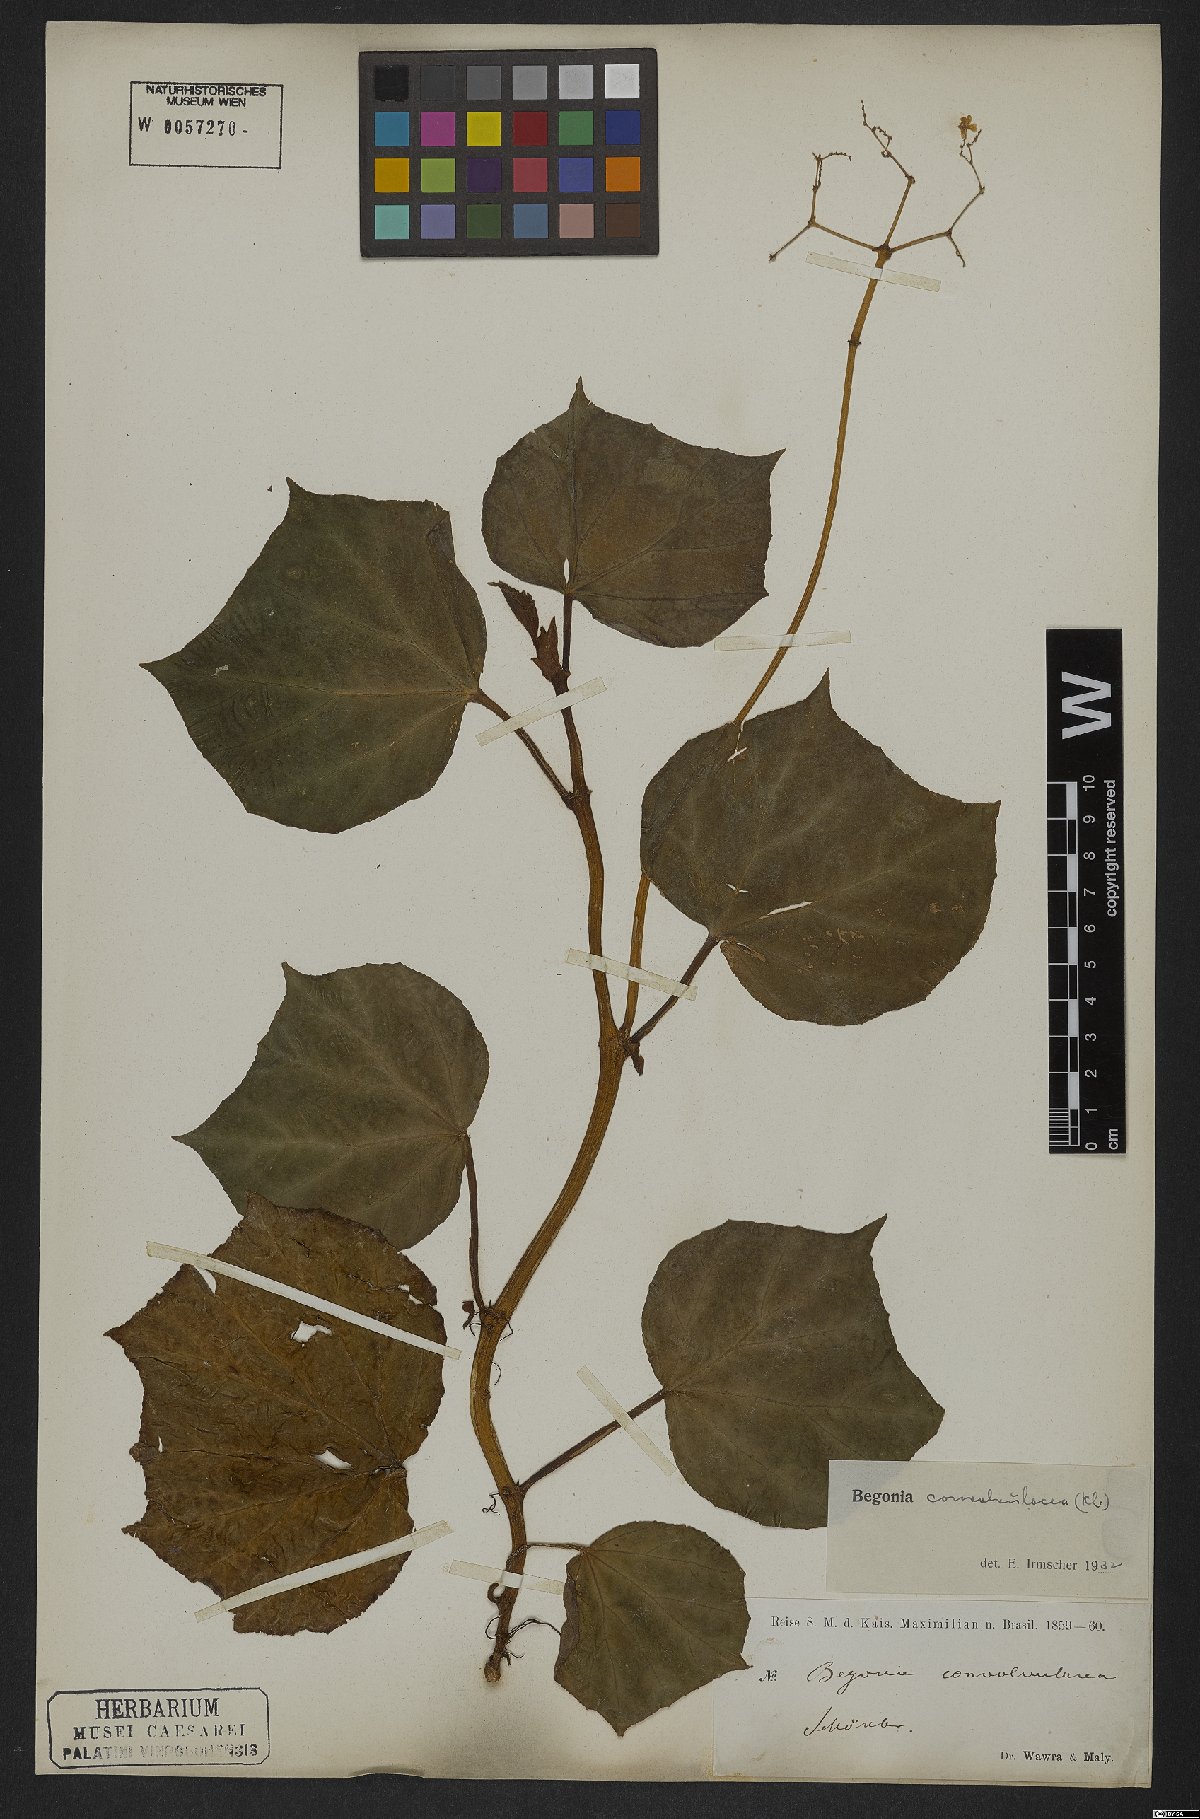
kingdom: Plantae
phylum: Tracheophyta
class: Magnoliopsida
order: Cucurbitales
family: Begoniaceae
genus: Begonia
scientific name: Begonia convolvulacea
